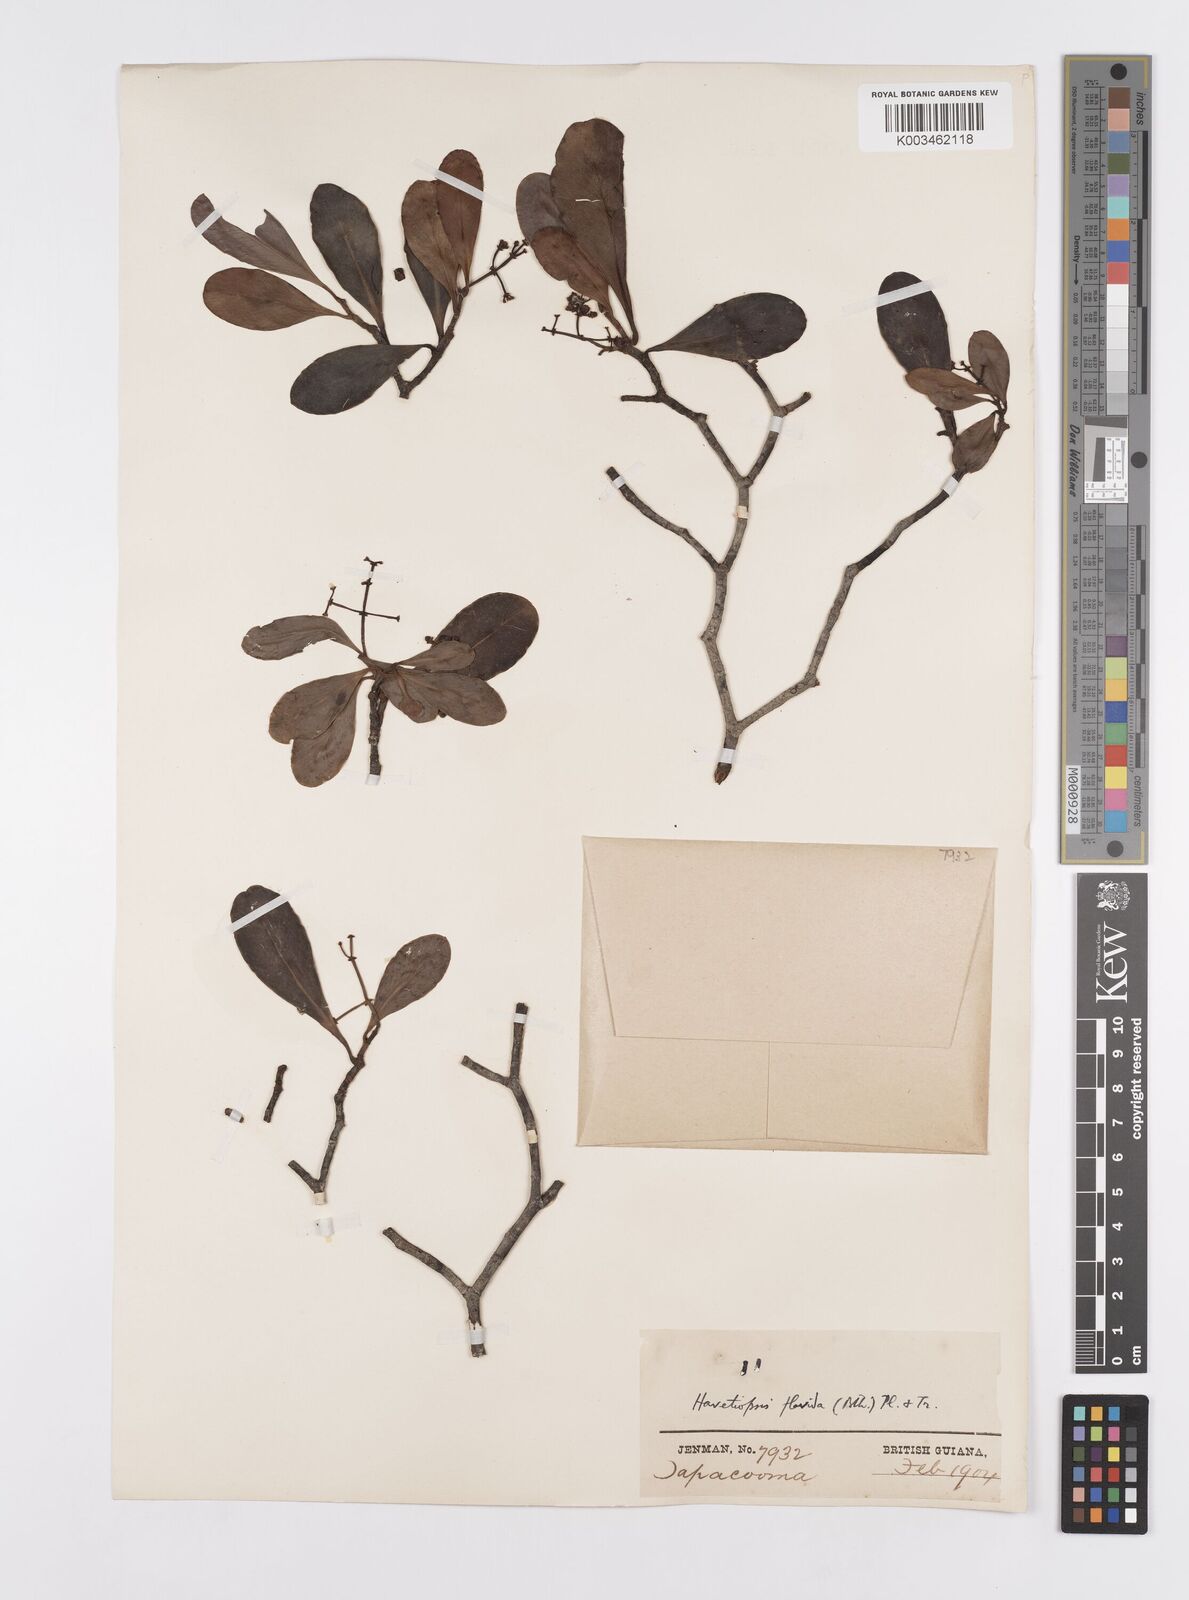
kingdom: Plantae
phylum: Tracheophyta
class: Magnoliopsida
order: Malpighiales
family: Clusiaceae
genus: Clusia
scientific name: Clusia flavida
